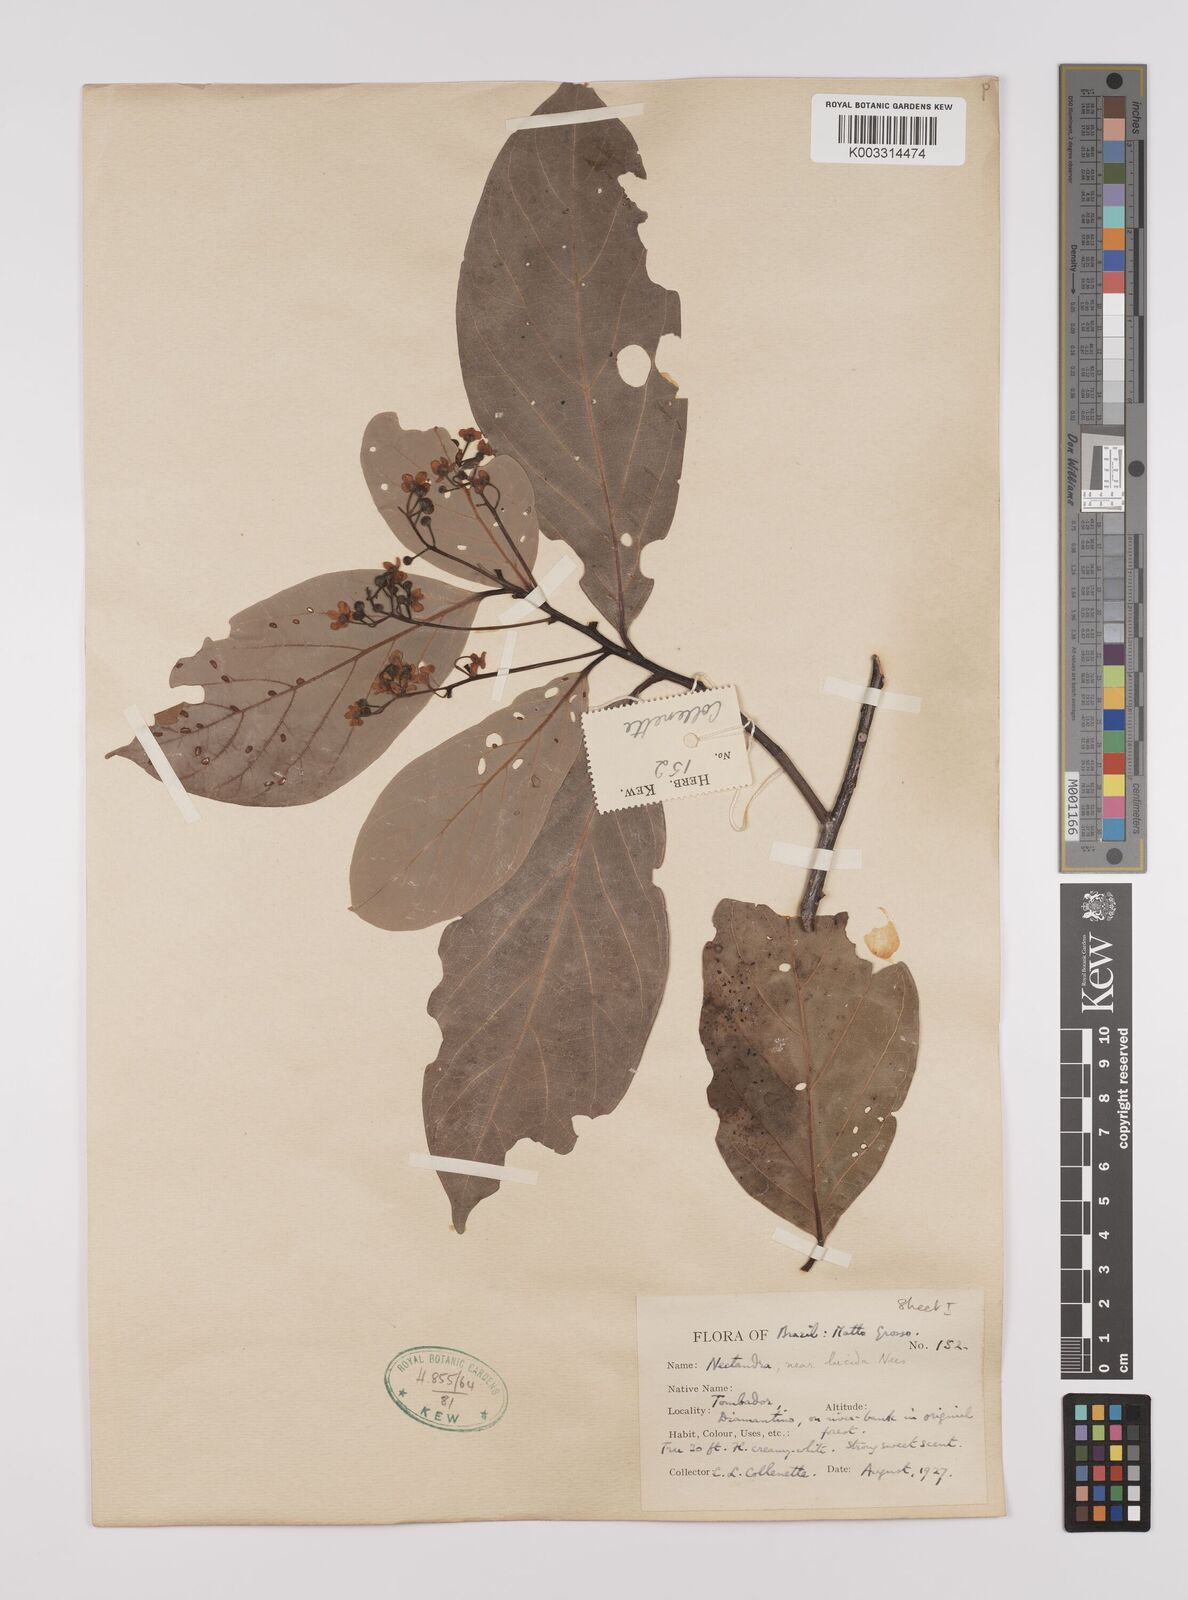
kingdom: Plantae
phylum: Tracheophyta
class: Magnoliopsida
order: Laurales
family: Lauraceae
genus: Nectandra
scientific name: Nectandra leucantha
